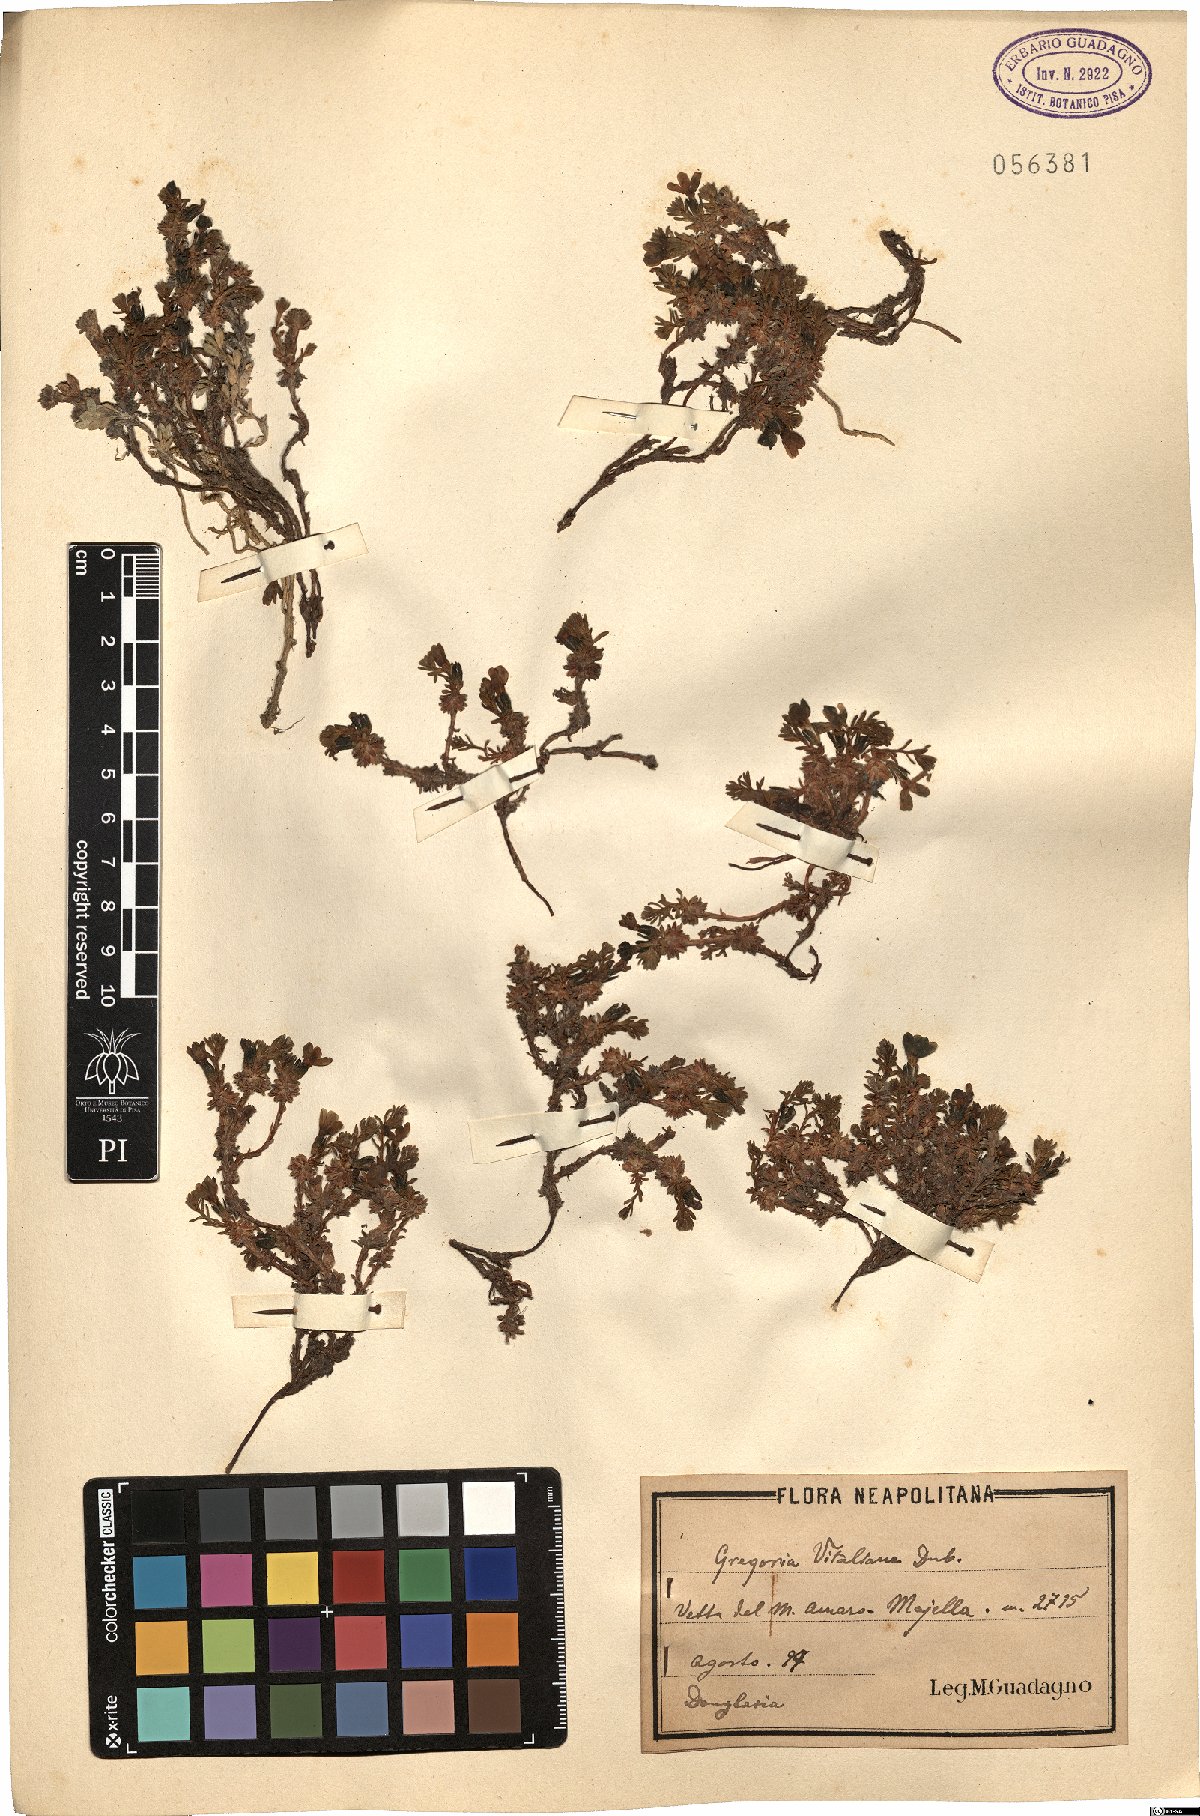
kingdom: Plantae
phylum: Tracheophyta
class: Magnoliopsida
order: Ericales
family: Primulaceae
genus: Androsace
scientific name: Androsace vitaliana
